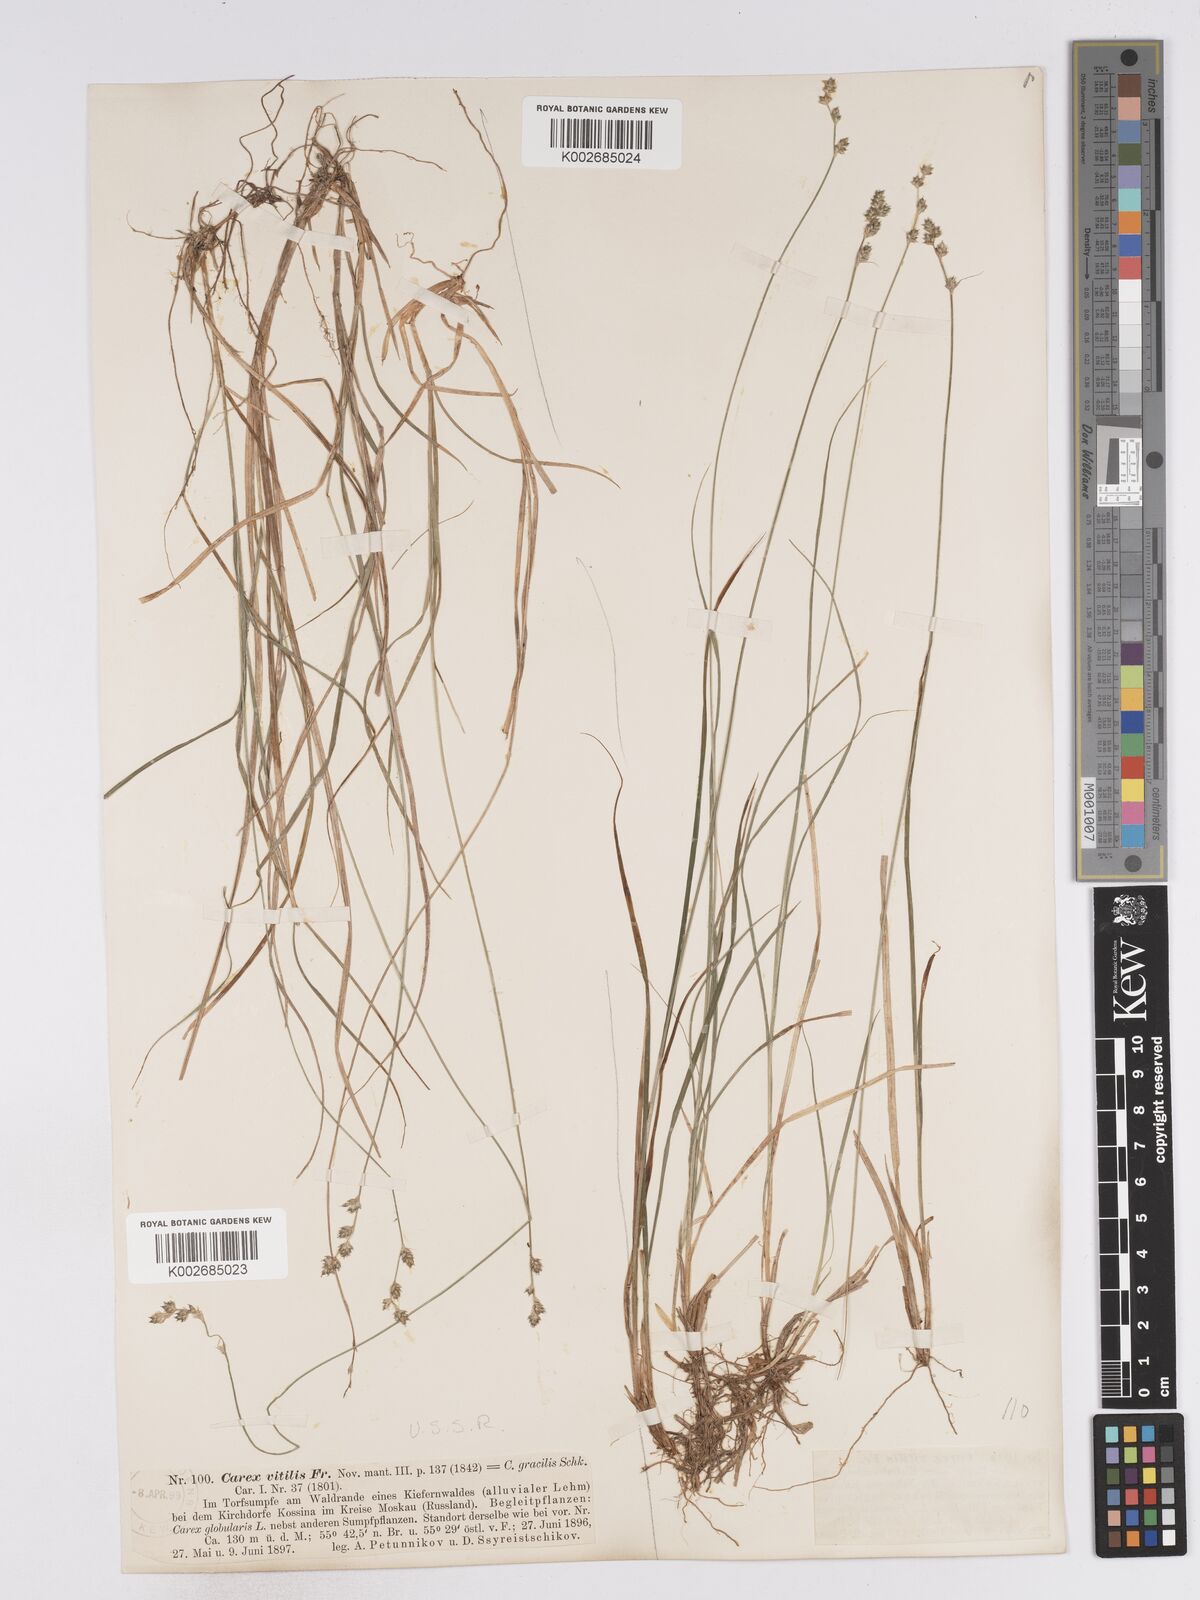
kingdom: Plantae
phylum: Tracheophyta
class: Liliopsida
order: Poales
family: Cyperaceae
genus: Carex
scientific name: Carex brunnescens
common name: Brown sedge
